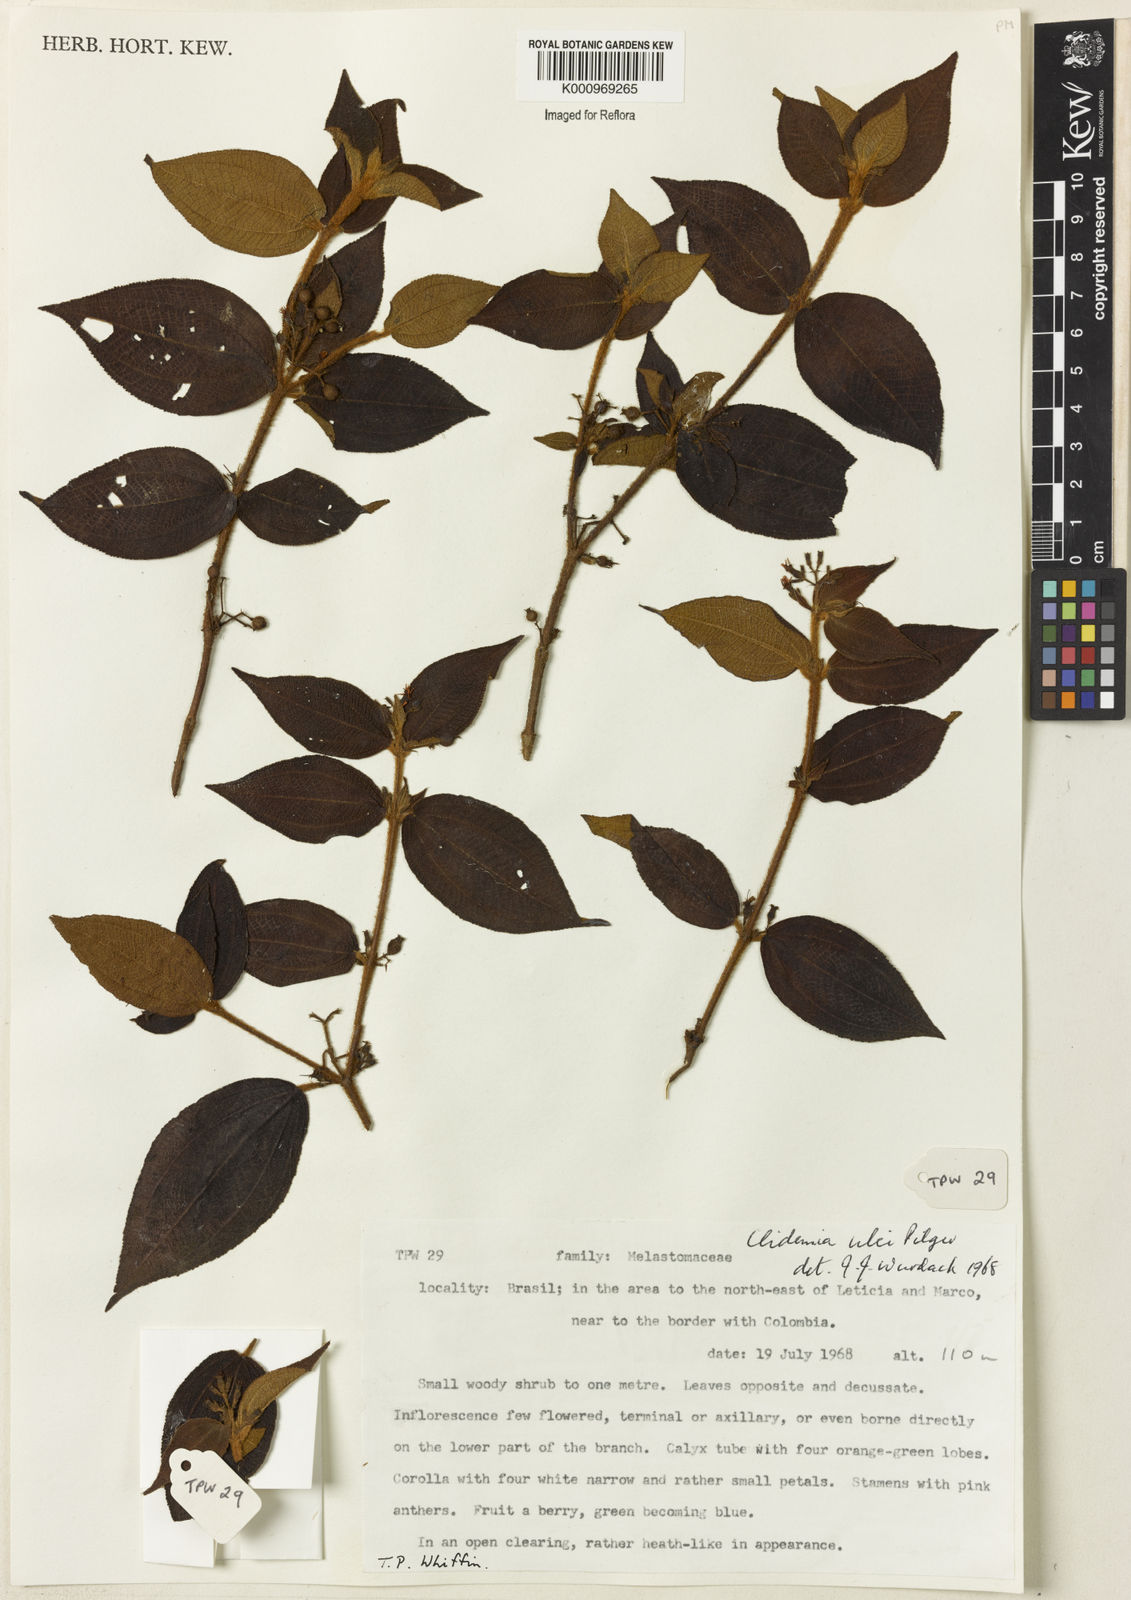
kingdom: Plantae
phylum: Tracheophyta
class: Magnoliopsida
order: Myrtales
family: Melastomataceae
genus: Miconia
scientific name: Miconia ernstulei
